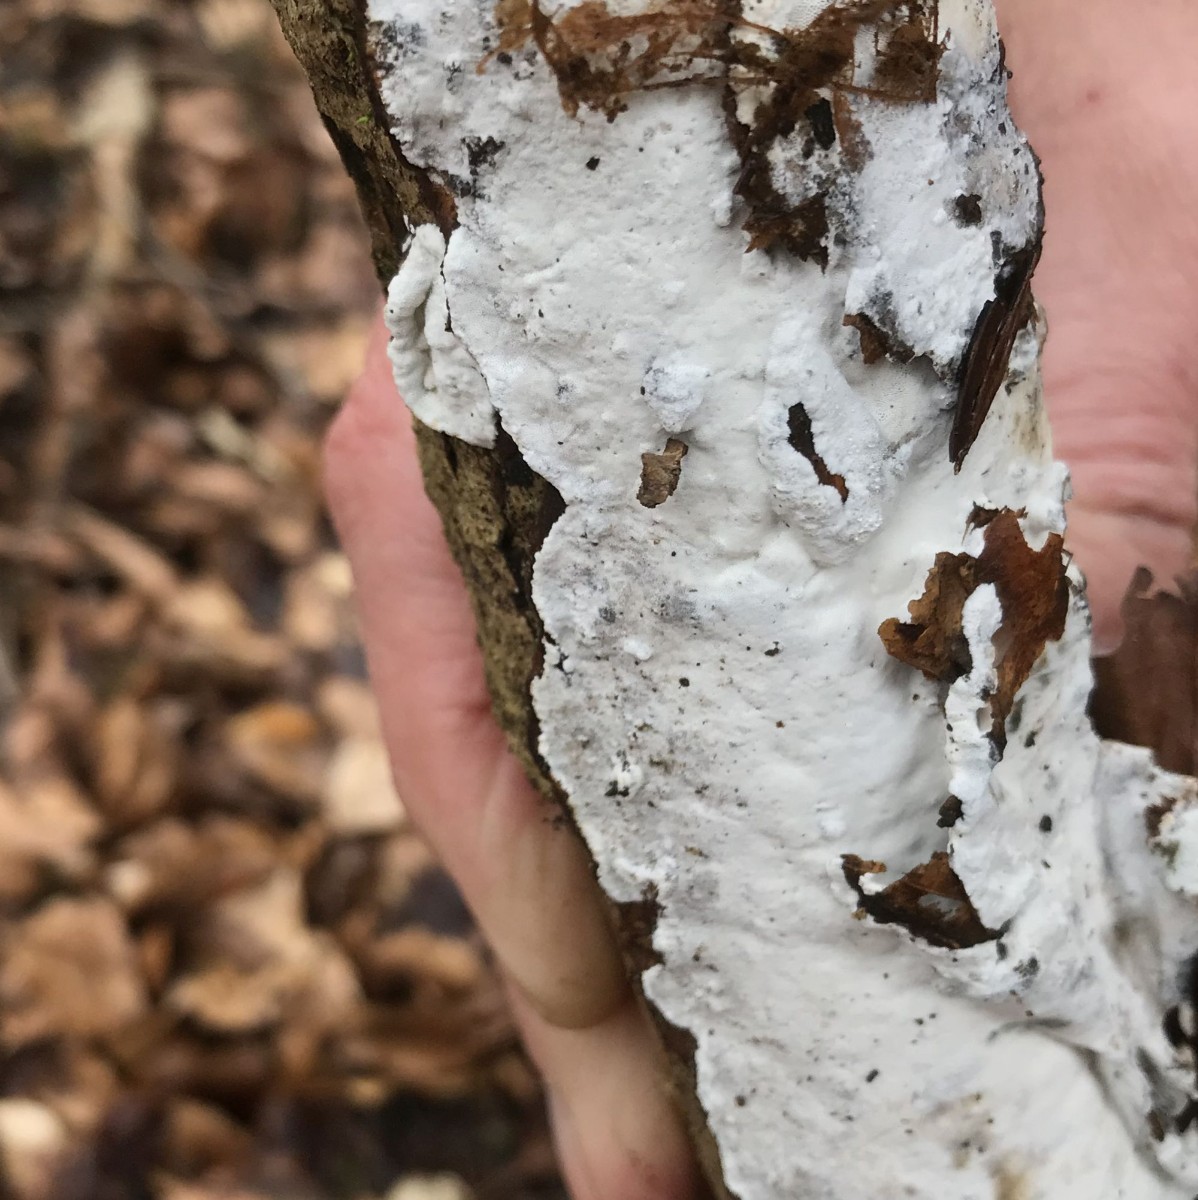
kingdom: Fungi
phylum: Basidiomycota
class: Agaricomycetes
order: Polyporales
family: Incrustoporiaceae
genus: Skeletocutis
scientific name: Skeletocutis nemoralis
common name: stor krystalporesvamp
